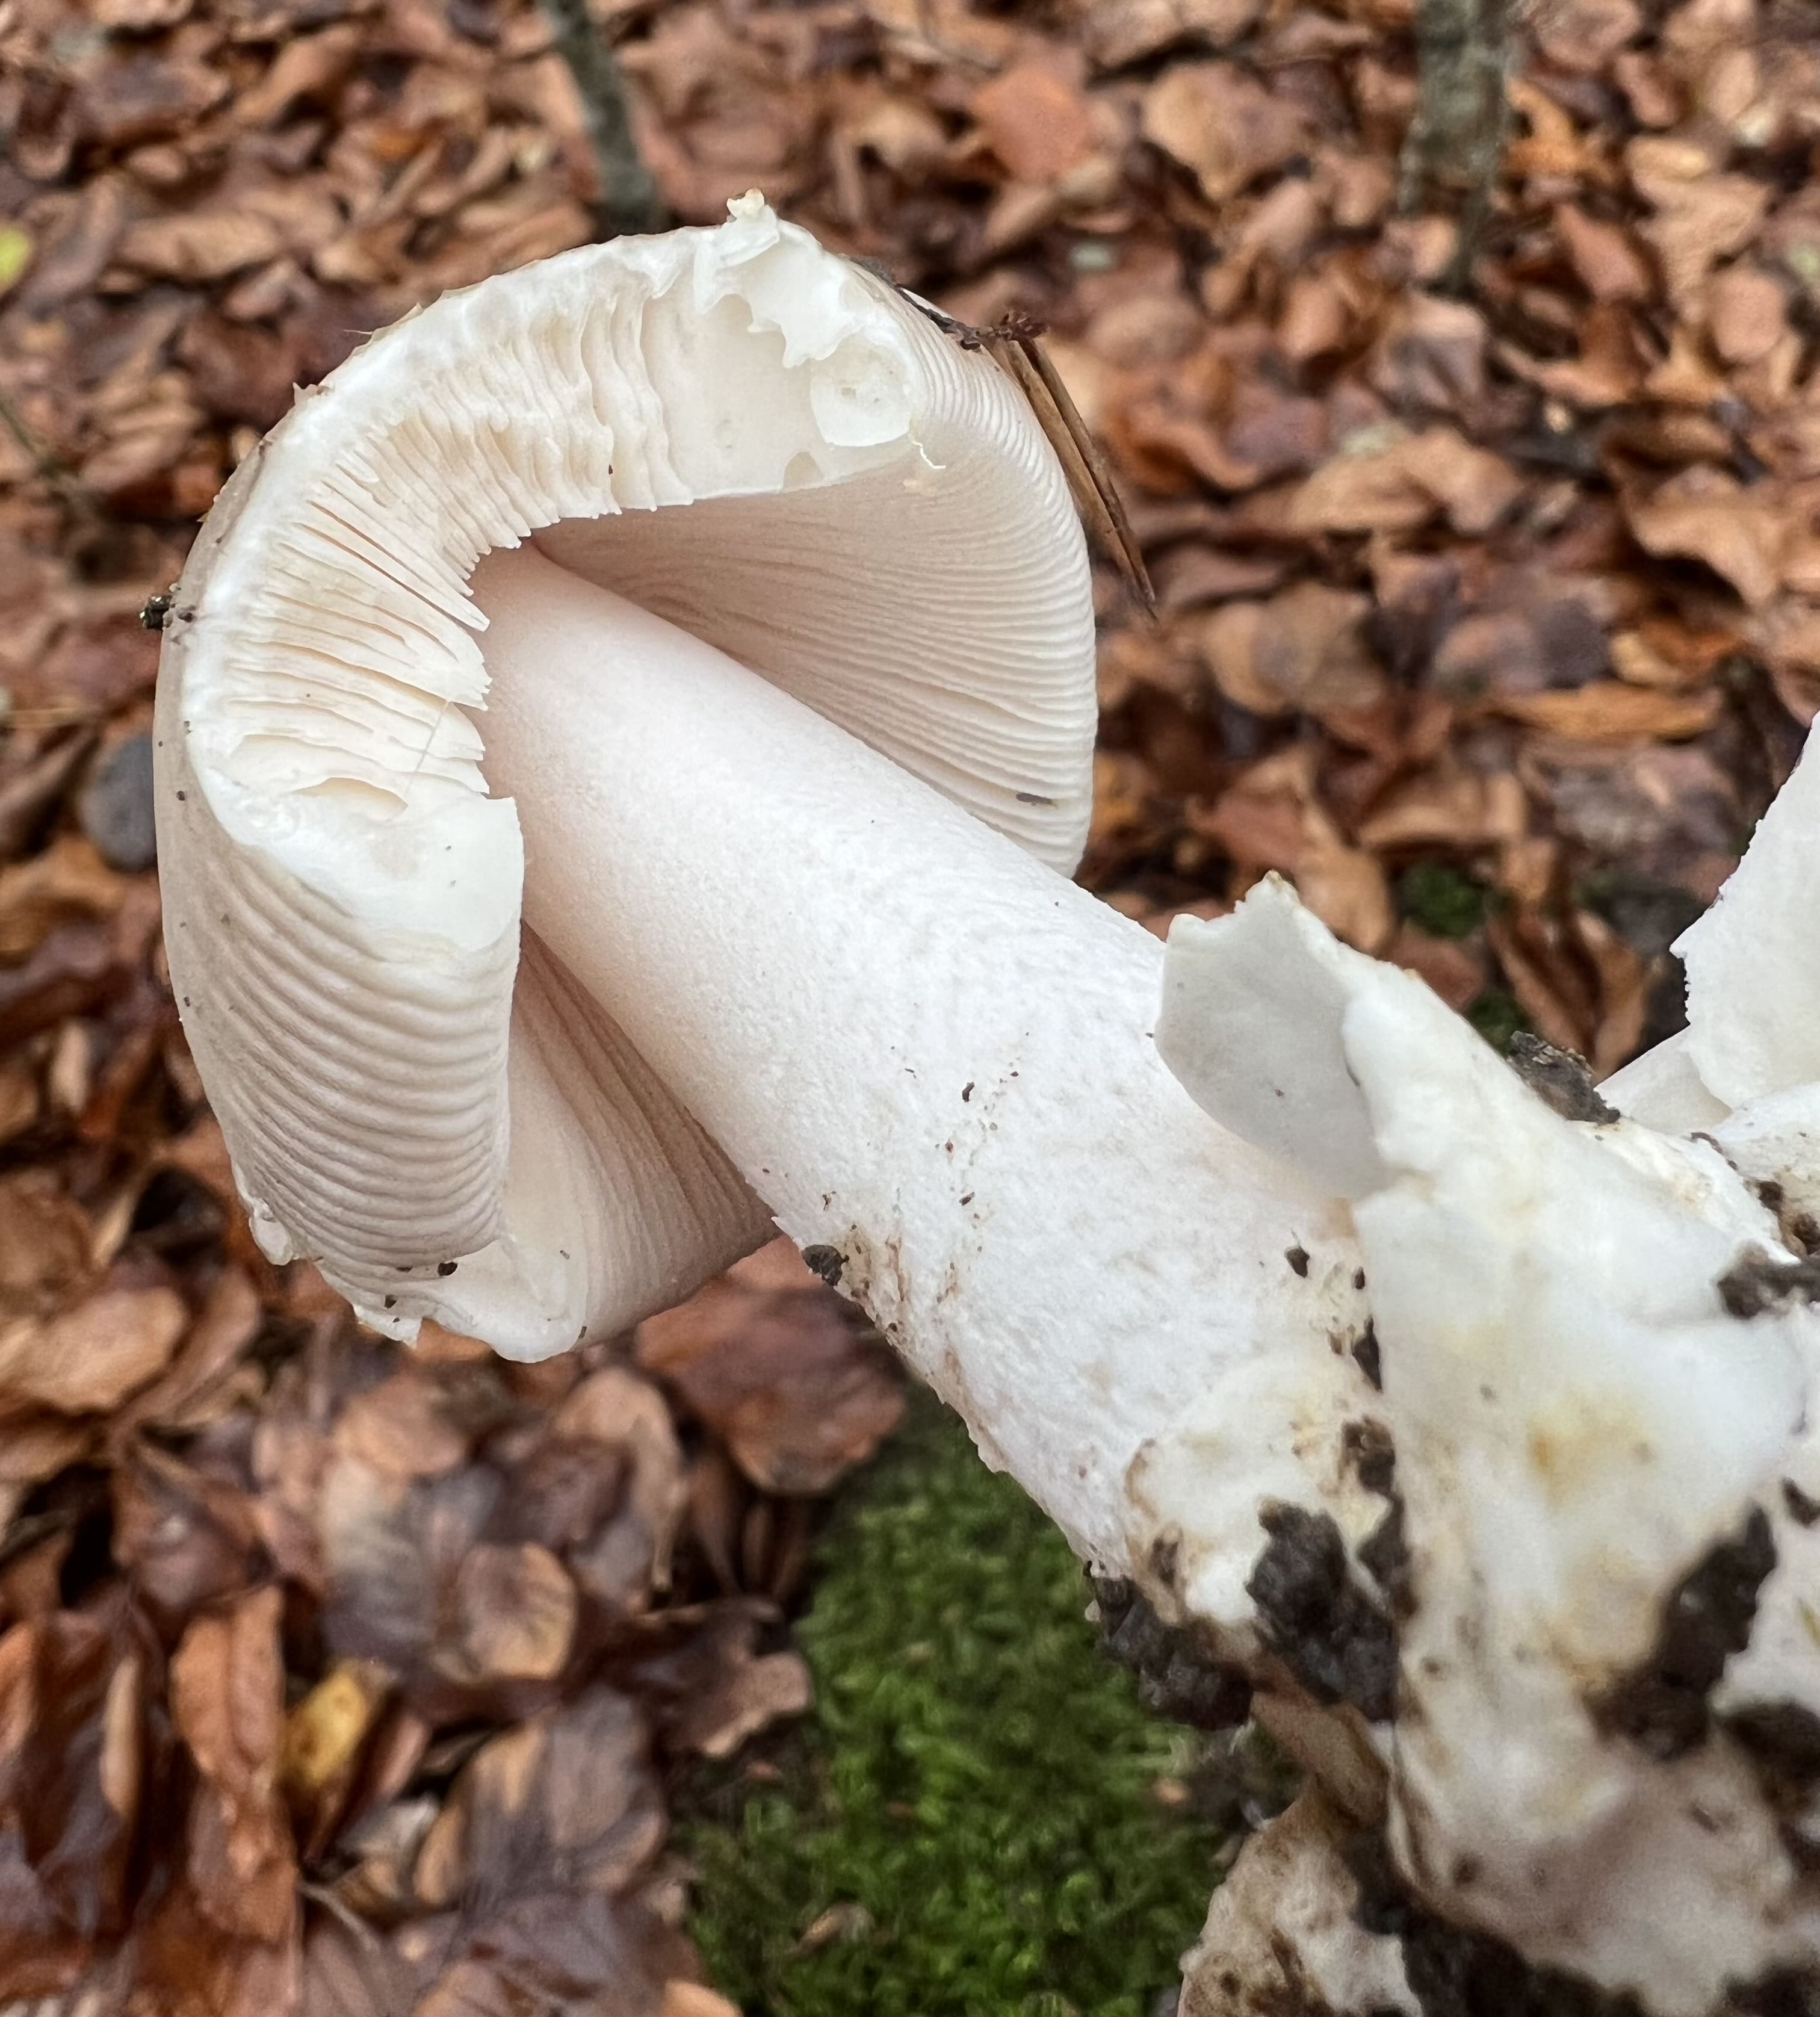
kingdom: Fungi
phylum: Basidiomycota
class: Agaricomycetes
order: Agaricales
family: Amanitaceae
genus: Amanita
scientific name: Amanita
